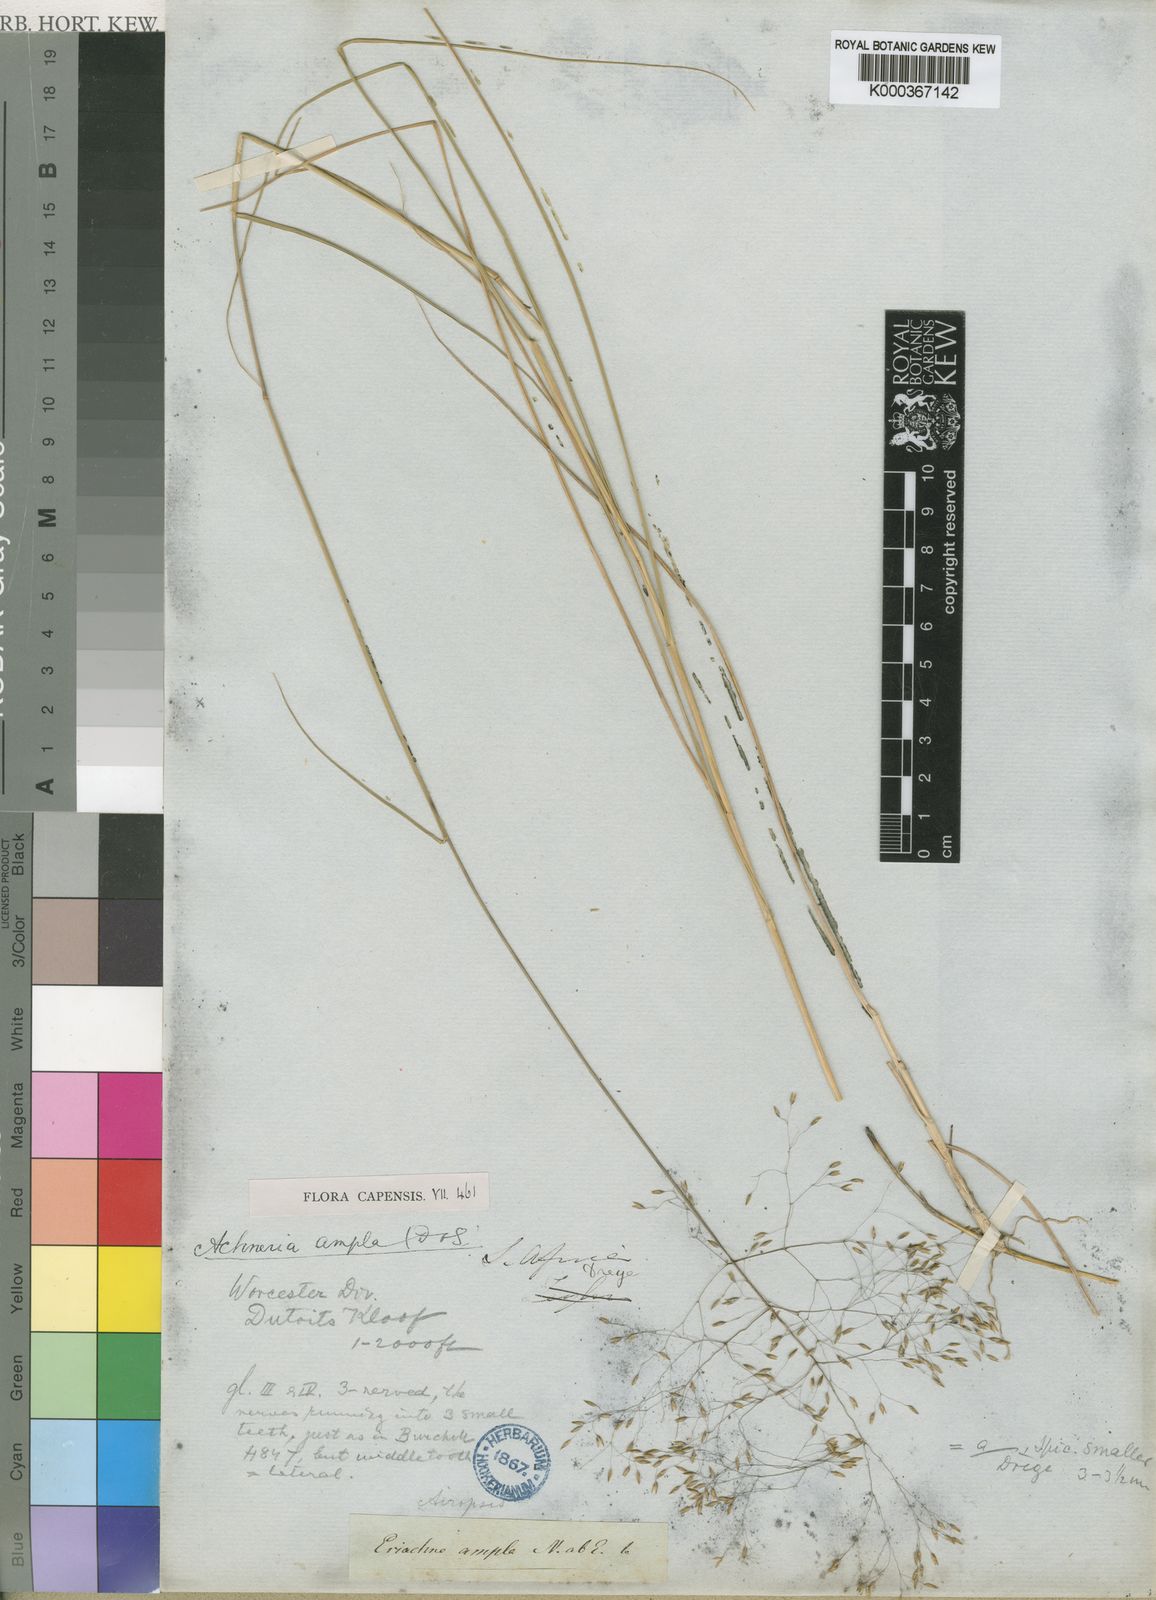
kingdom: Plantae
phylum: Tracheophyta
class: Liliopsida
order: Poales
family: Poaceae
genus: Pentameris
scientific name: Pentameris ampla
